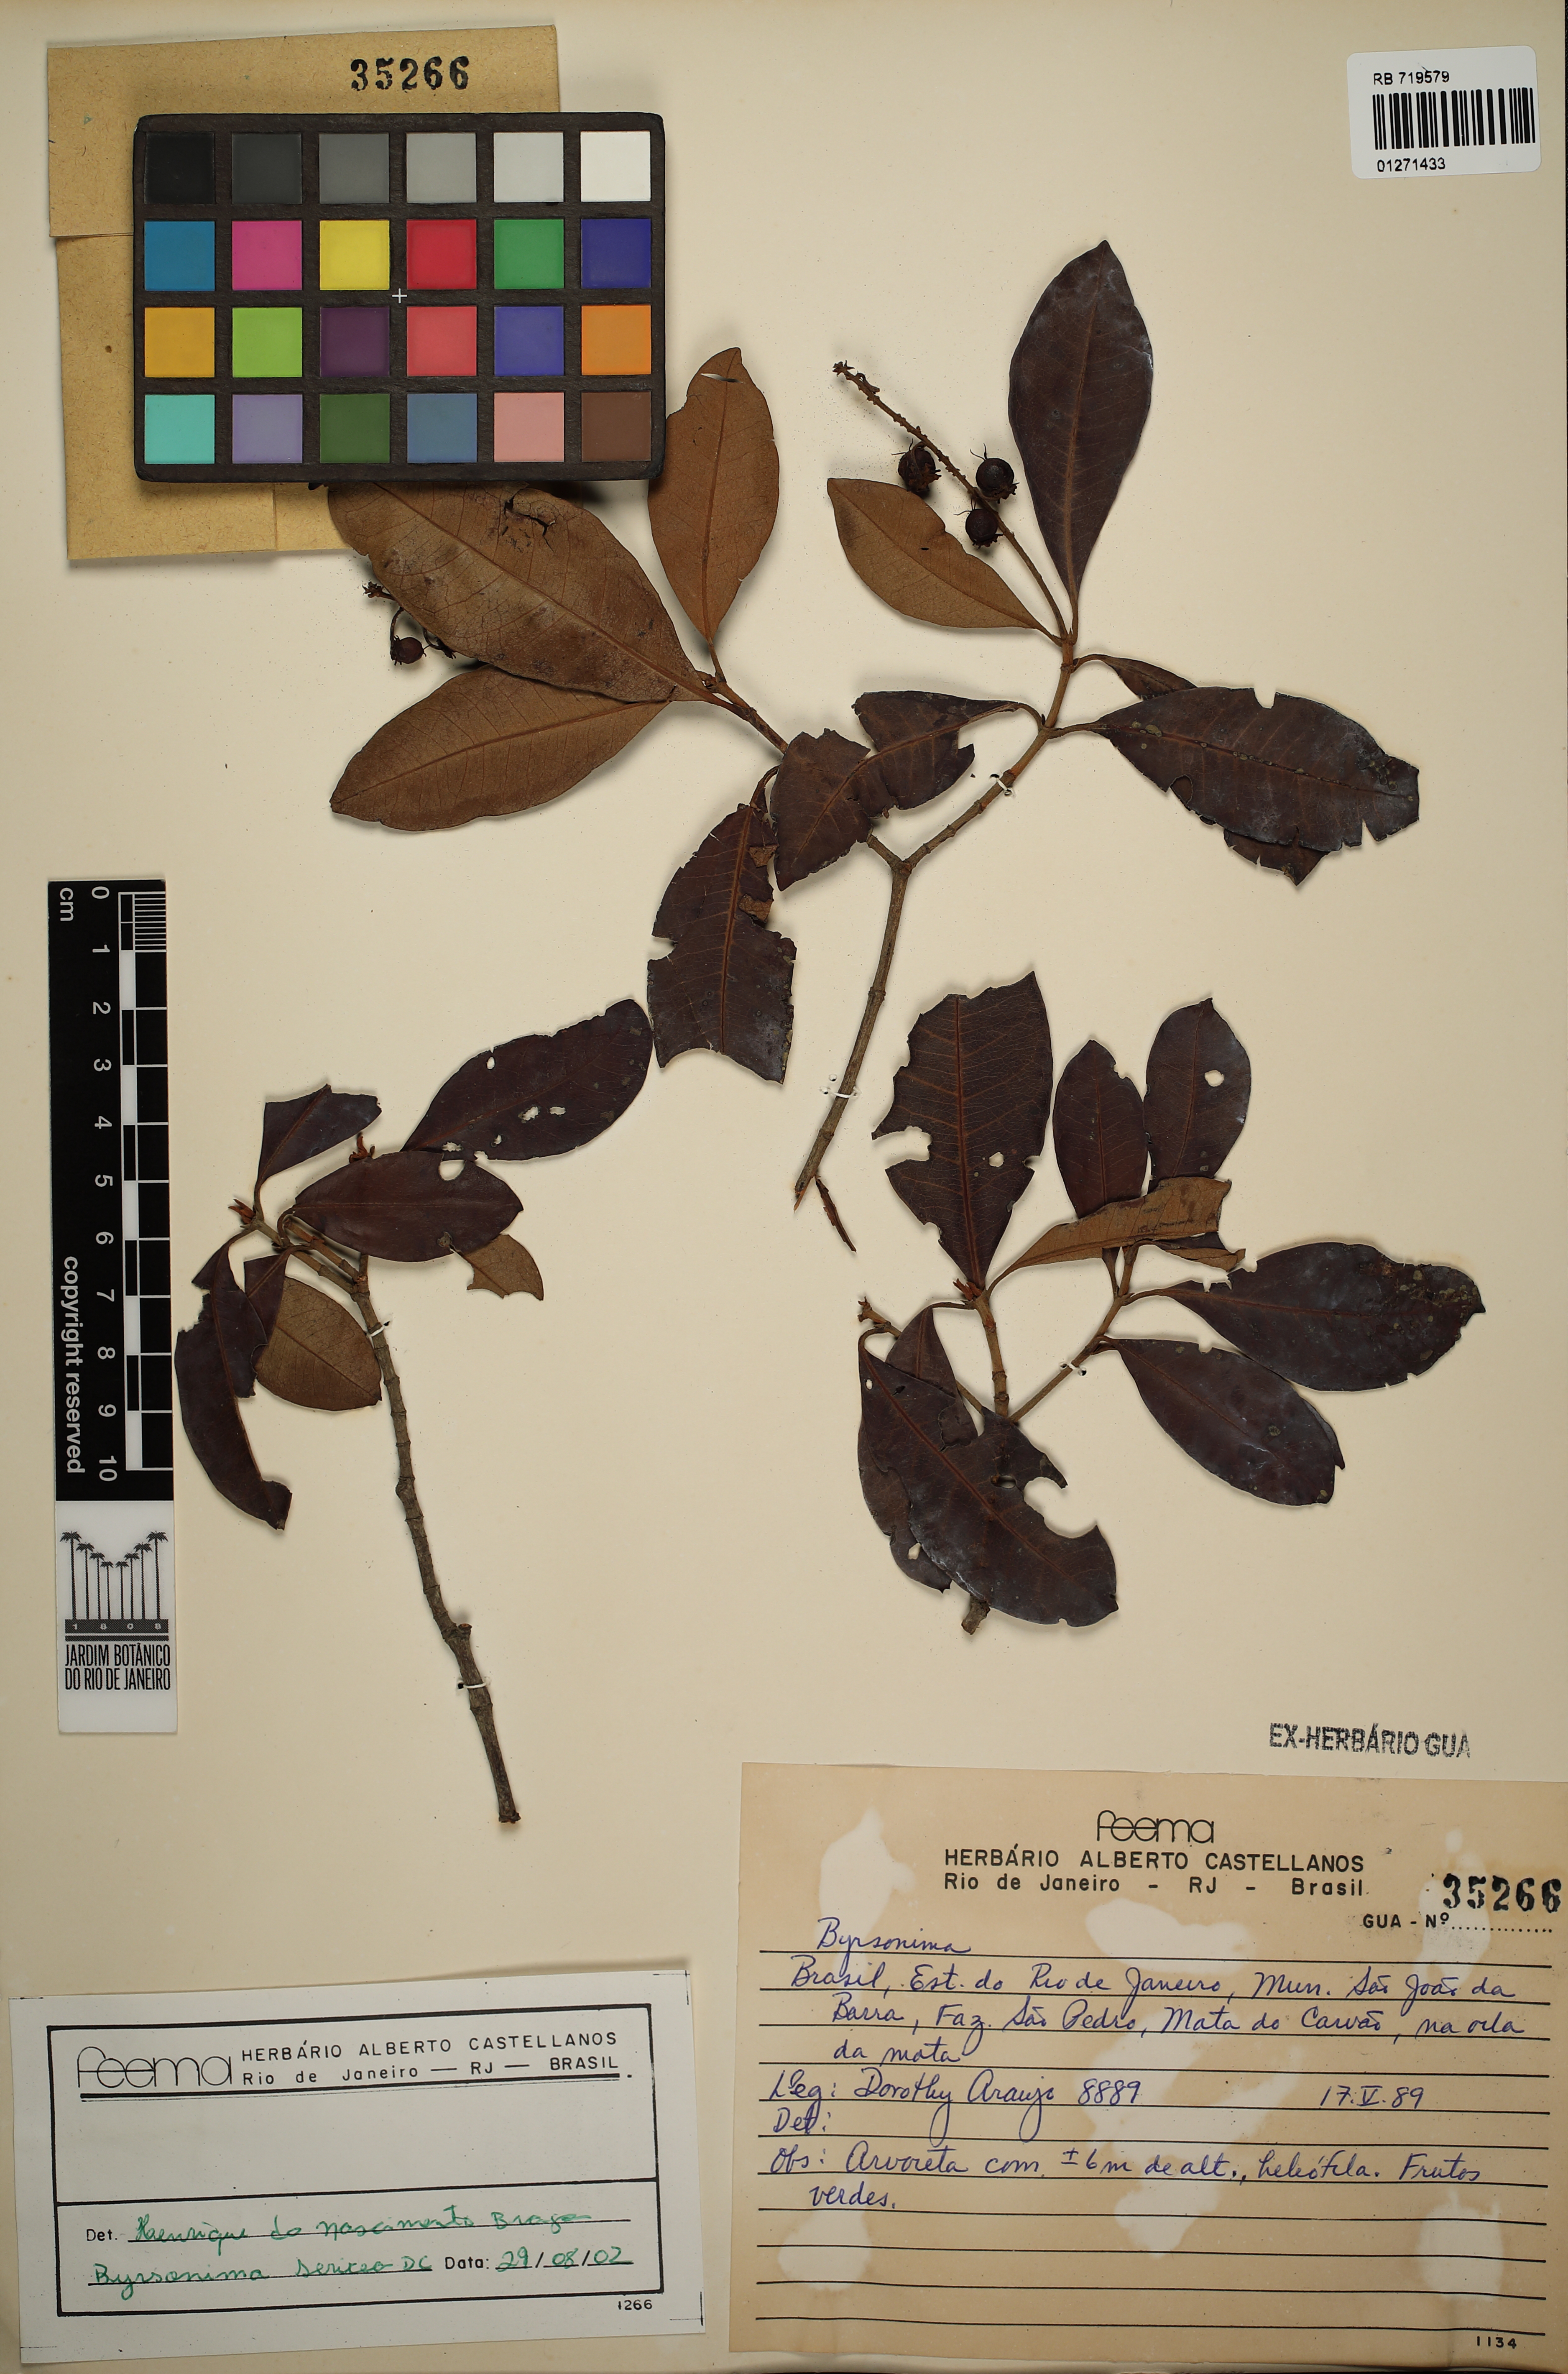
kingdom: Plantae
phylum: Tracheophyta
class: Magnoliopsida
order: Malpighiales
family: Malpighiaceae
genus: Byrsonima
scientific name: Byrsonima sericea
